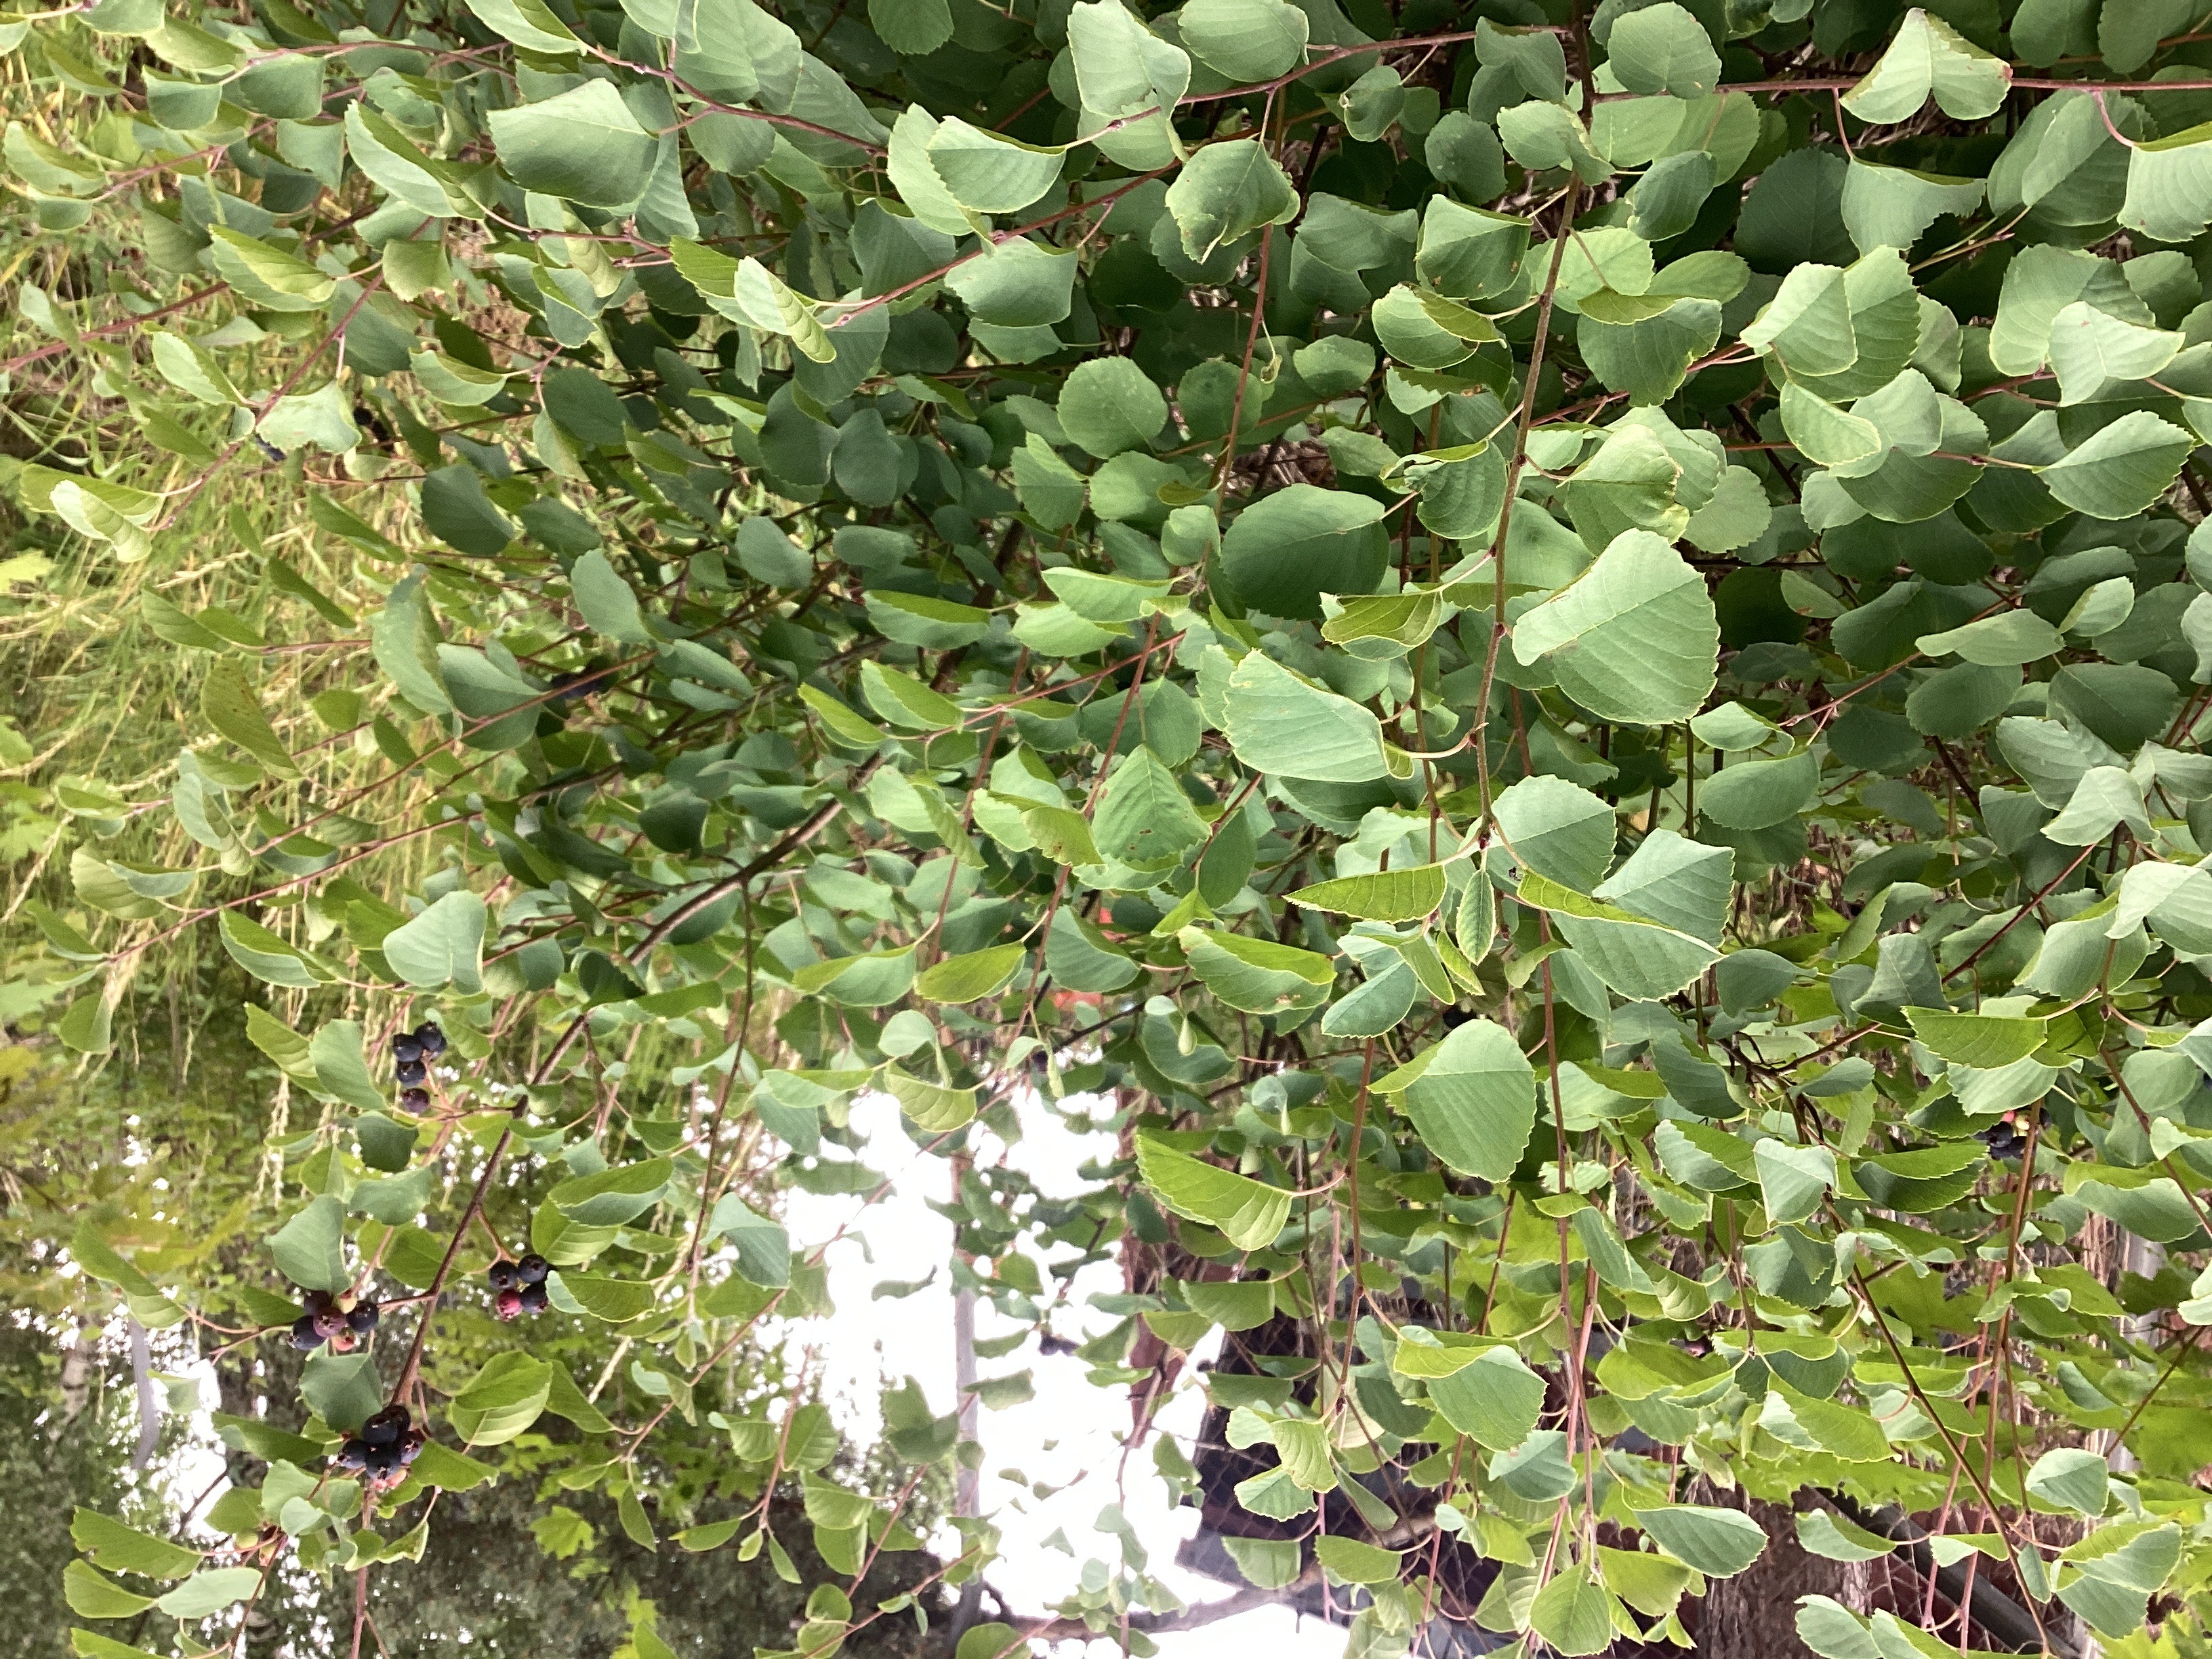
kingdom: Plantae
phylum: Tracheophyta
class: Magnoliopsida
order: Rosales
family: Rosaceae
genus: Amelanchier
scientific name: Amelanchier alnifolia
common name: taggblåhegg
